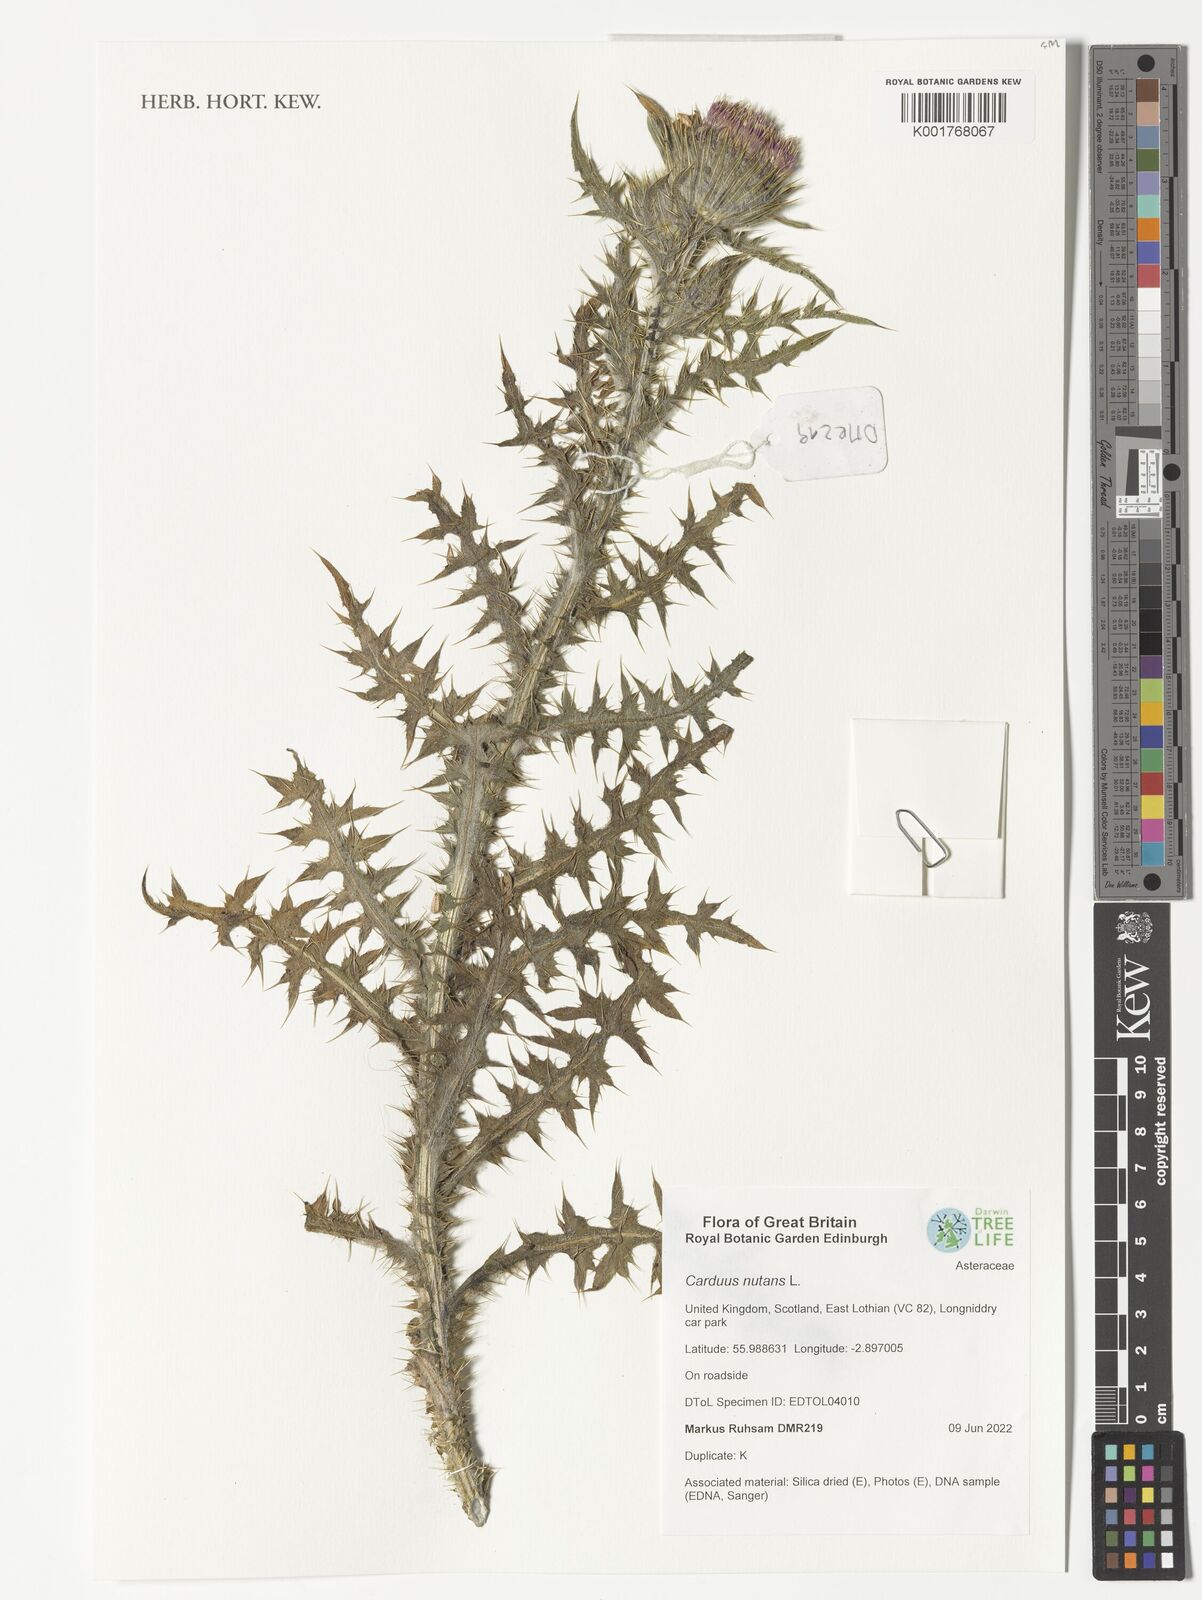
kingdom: Plantae
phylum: Tracheophyta
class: Magnoliopsida
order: Asterales
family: Asteraceae
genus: Carduus
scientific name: Carduus nutans
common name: Musk thistle
